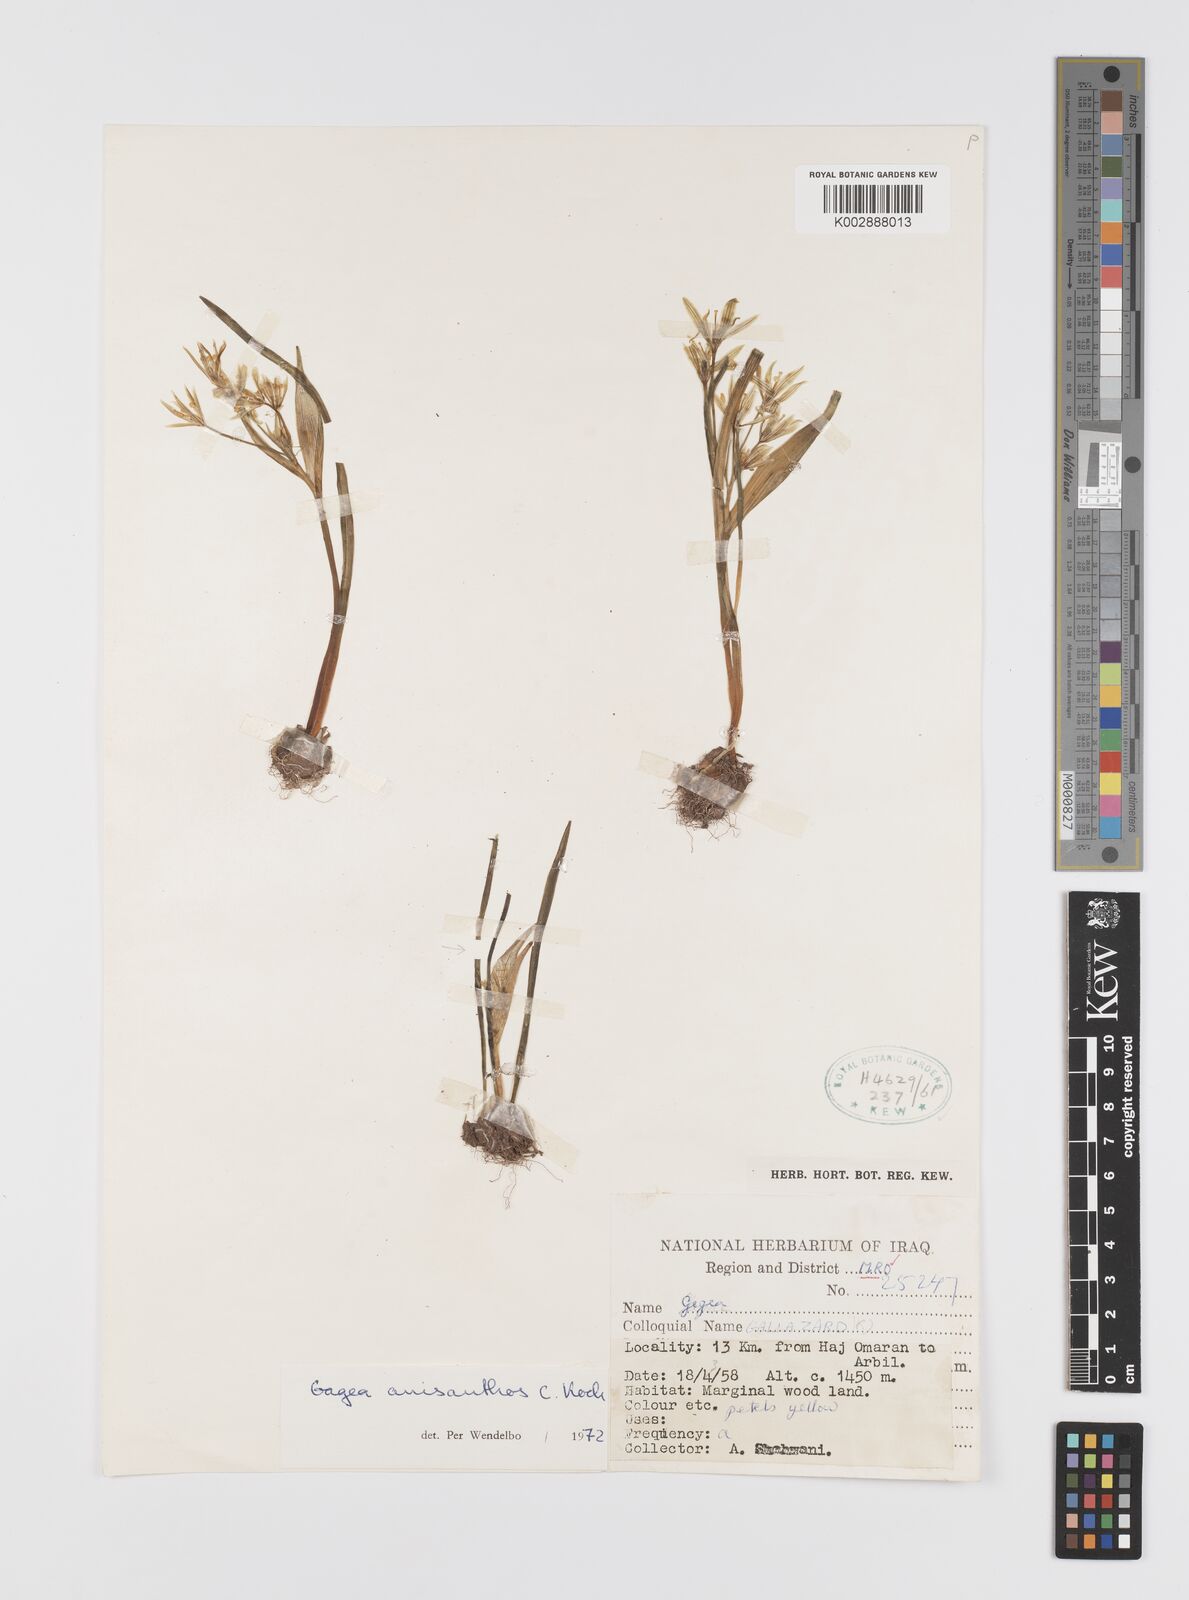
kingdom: Plantae
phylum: Tracheophyta
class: Liliopsida
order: Liliales
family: Liliaceae
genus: Gagea
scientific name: Gagea fragifera
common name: Lily
